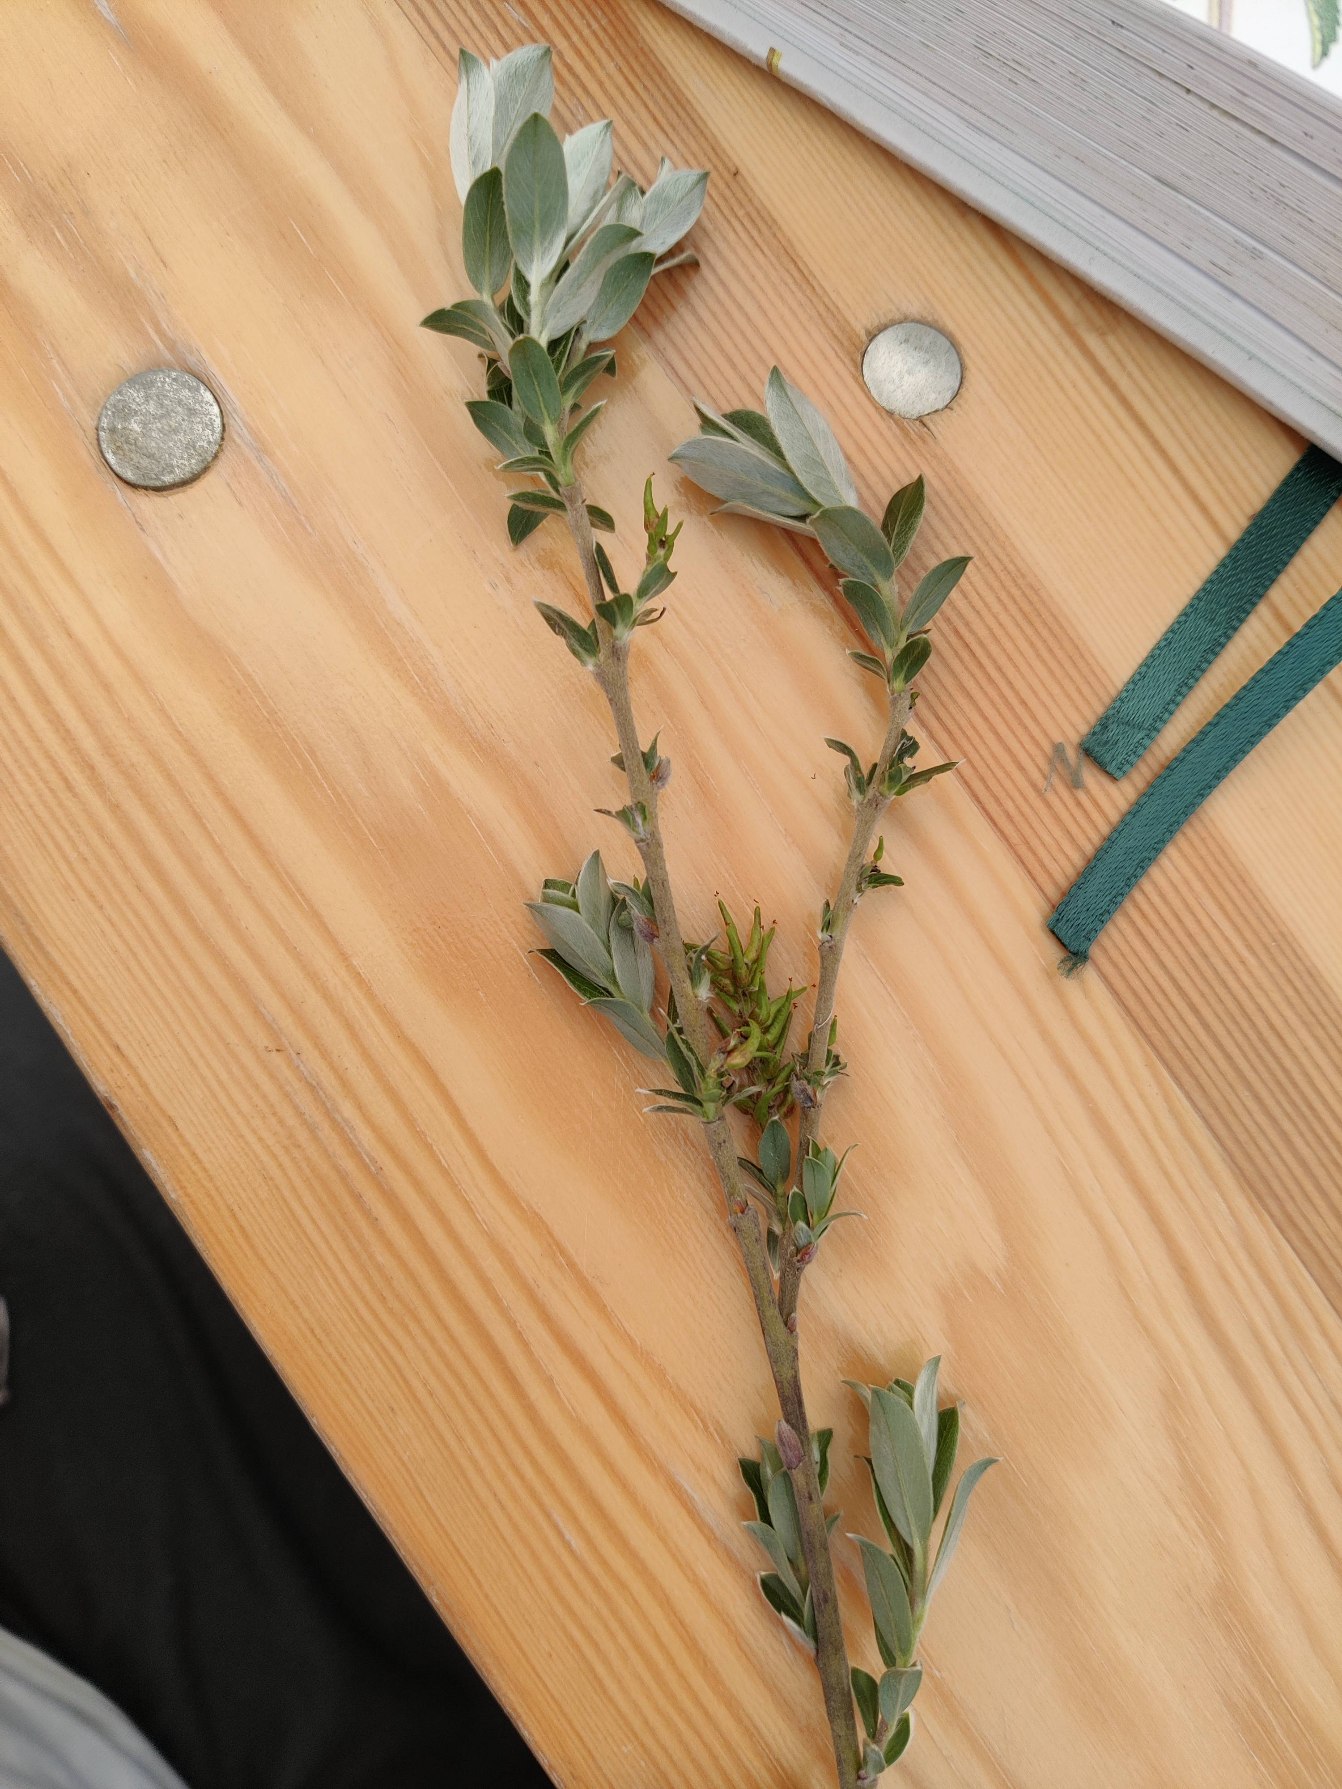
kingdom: Plantae
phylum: Tracheophyta
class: Magnoliopsida
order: Malpighiales
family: Salicaceae
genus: Salix
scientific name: Salix repens
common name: Krybende pil
